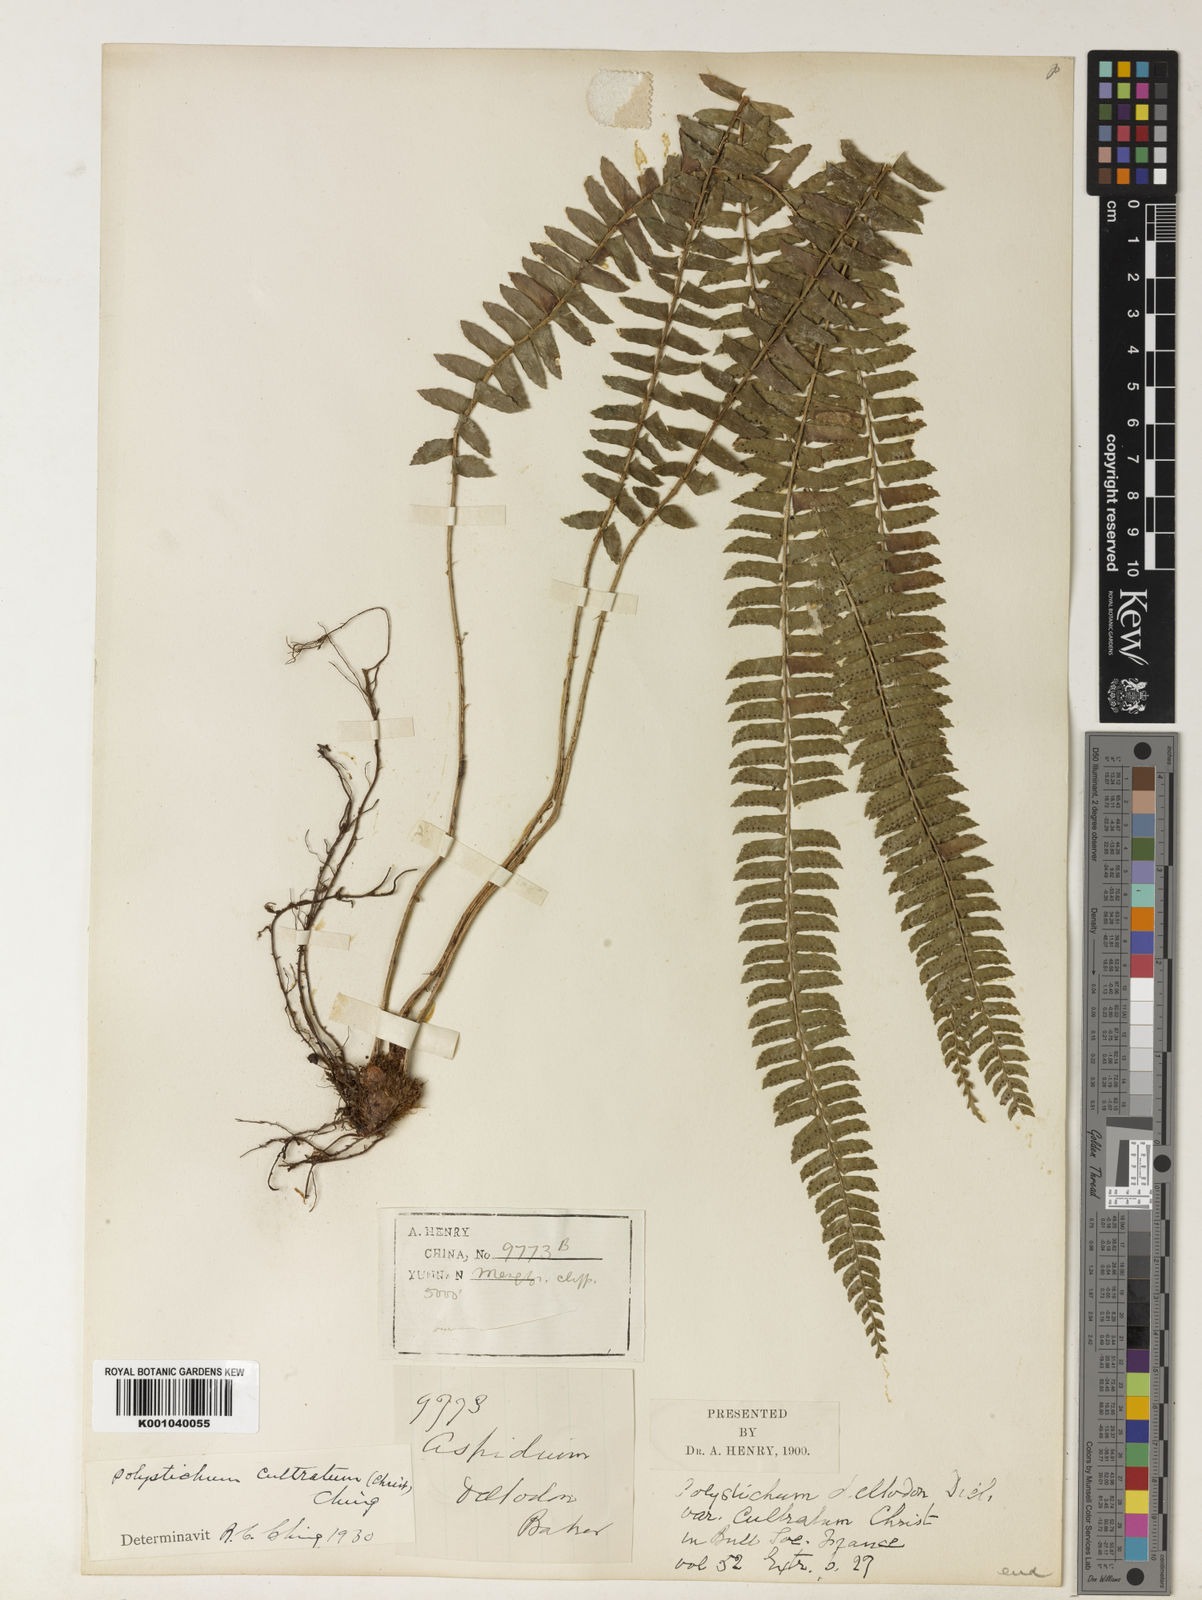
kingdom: Plantae
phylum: Tracheophyta
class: Polypodiopsida
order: Polypodiales
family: Dryopteridaceae
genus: Polystichum
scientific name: Polystichum
